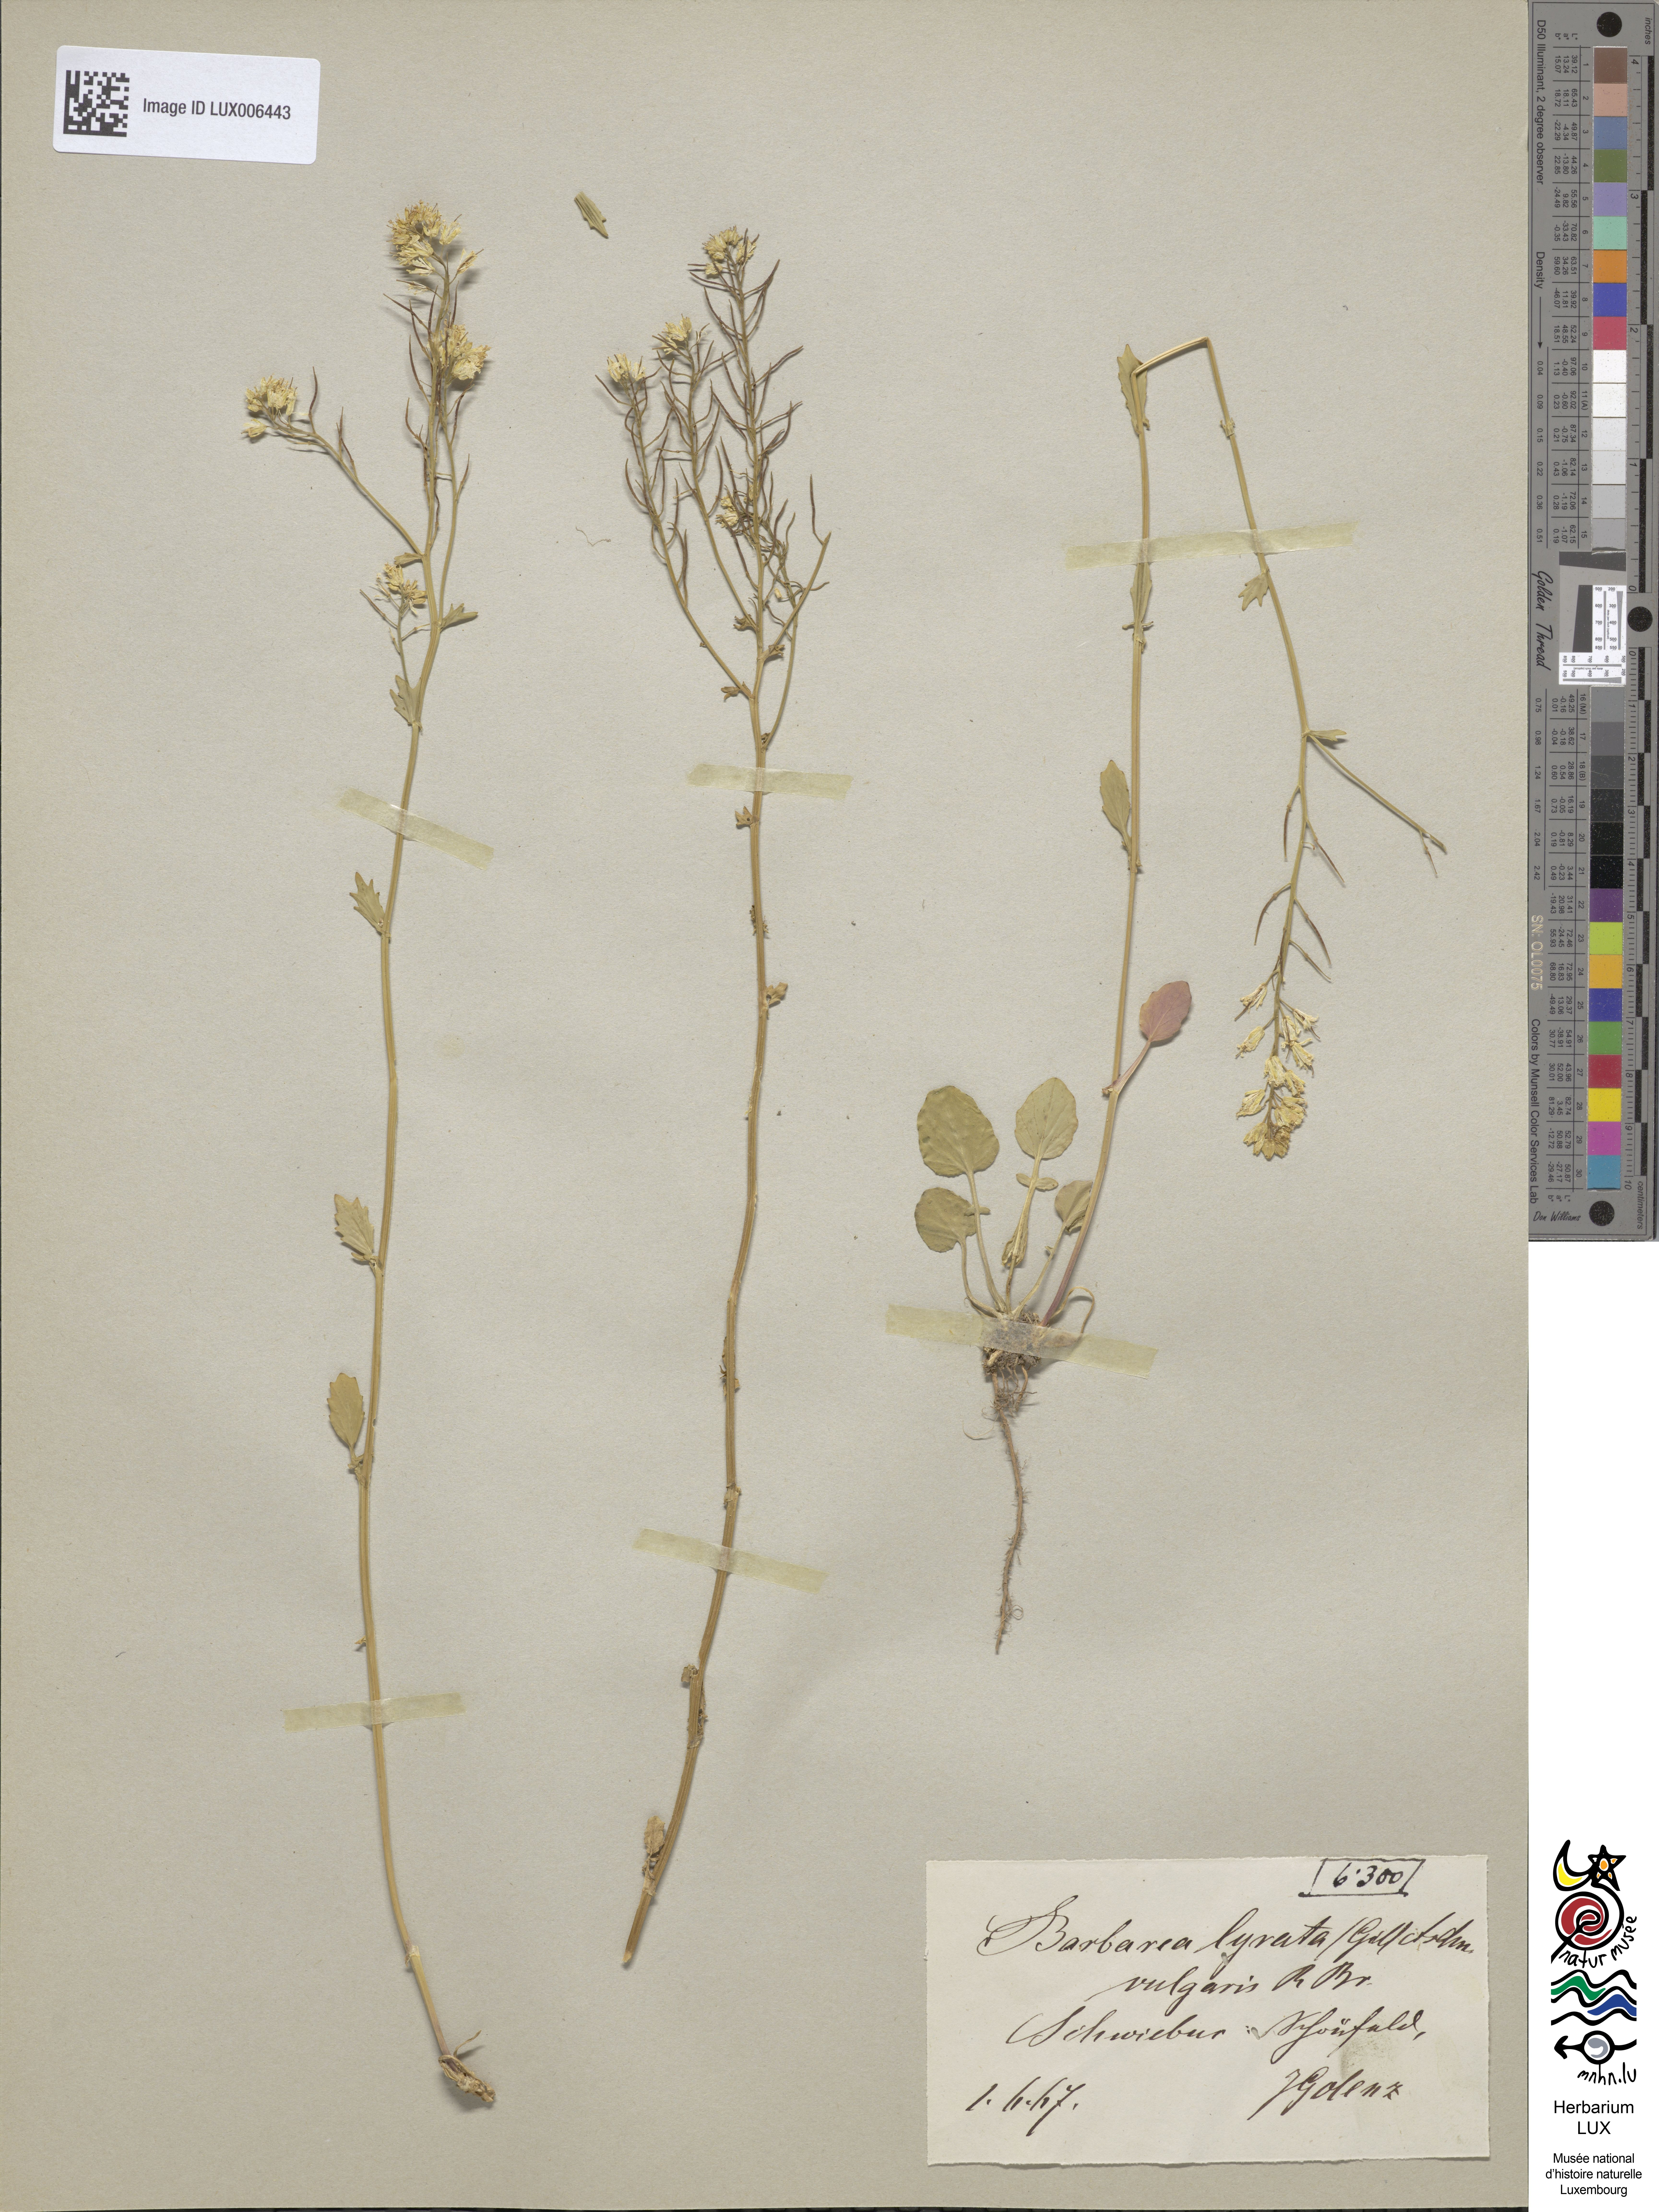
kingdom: Plantae
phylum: Tracheophyta
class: Magnoliopsida
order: Brassicales
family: Brassicaceae
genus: Barbarea
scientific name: Barbarea vulgaris
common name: Cressy-greens
